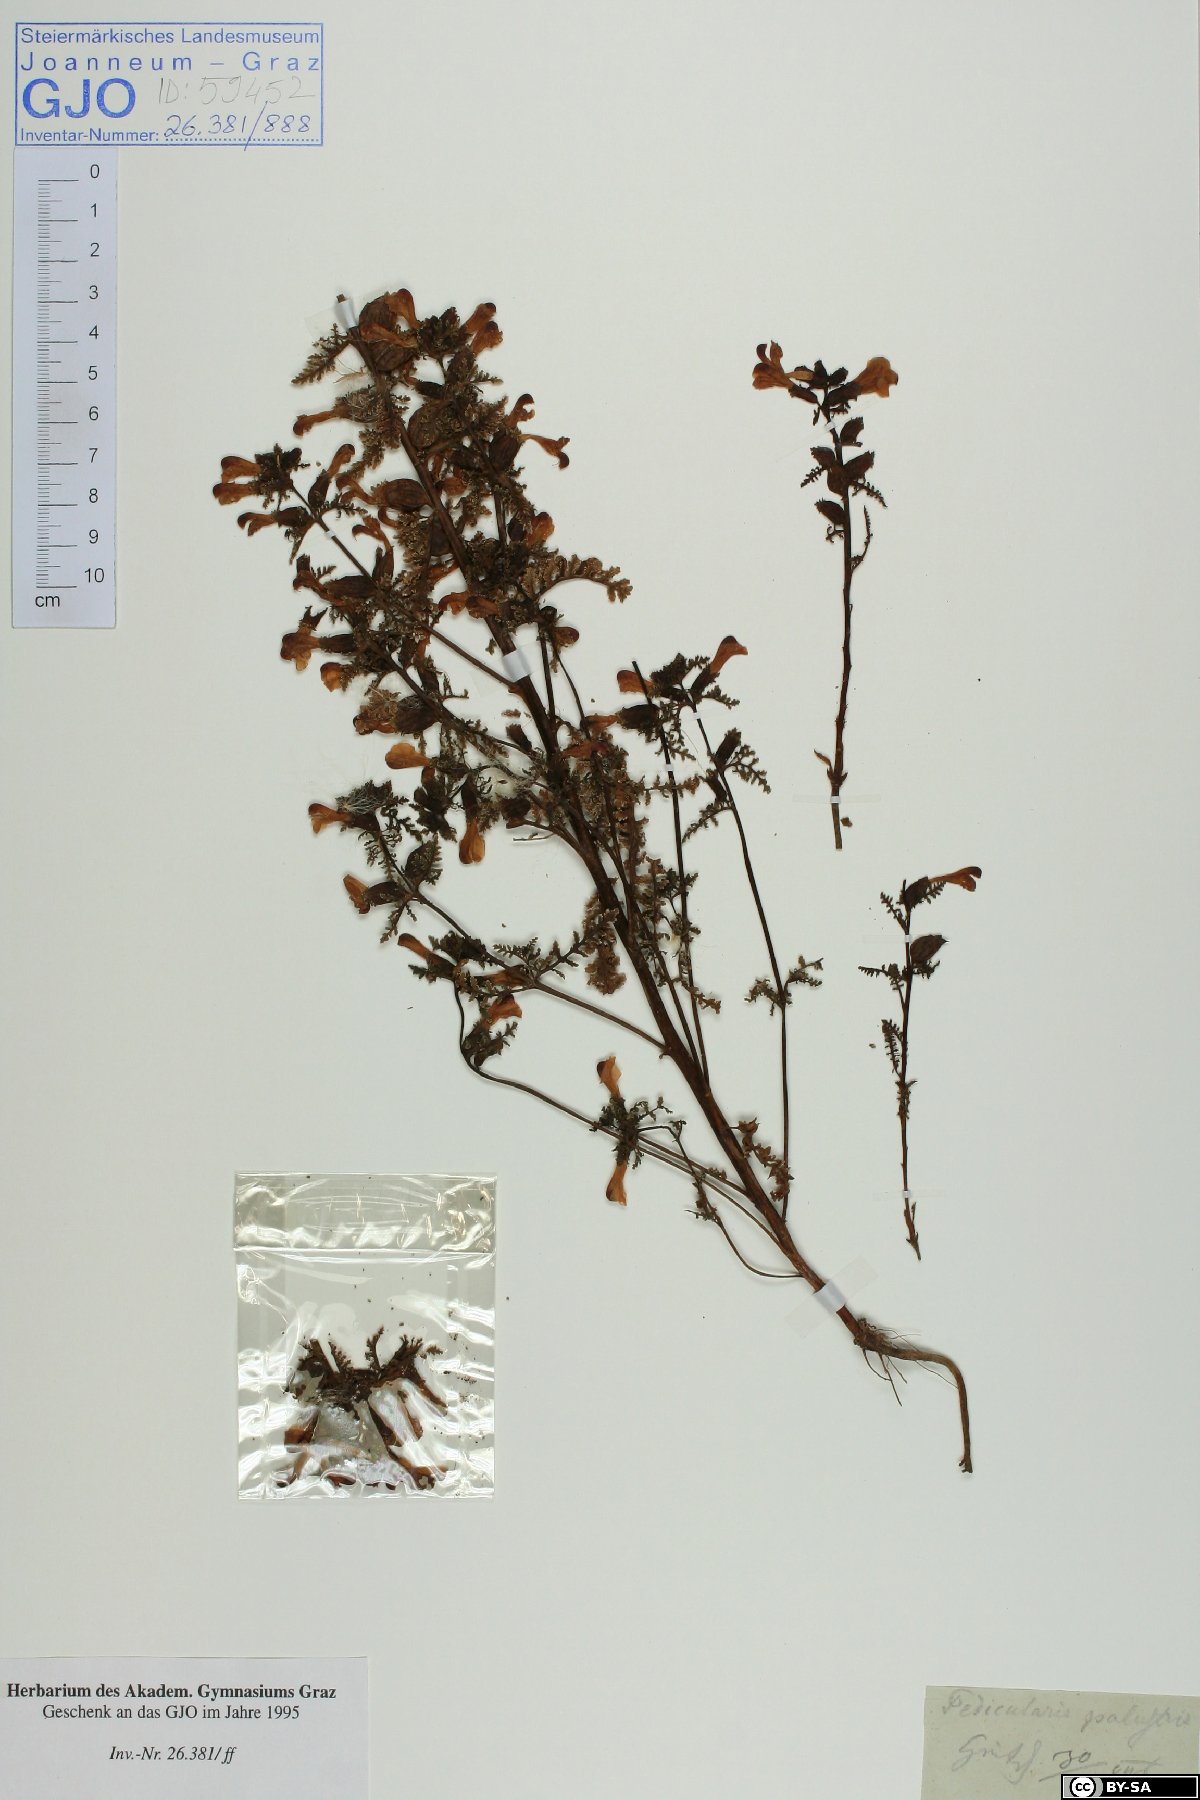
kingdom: Plantae
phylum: Tracheophyta
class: Magnoliopsida
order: Lamiales
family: Orobanchaceae
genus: Pedicularis
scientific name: Pedicularis palustris
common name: Marsh lousewort
